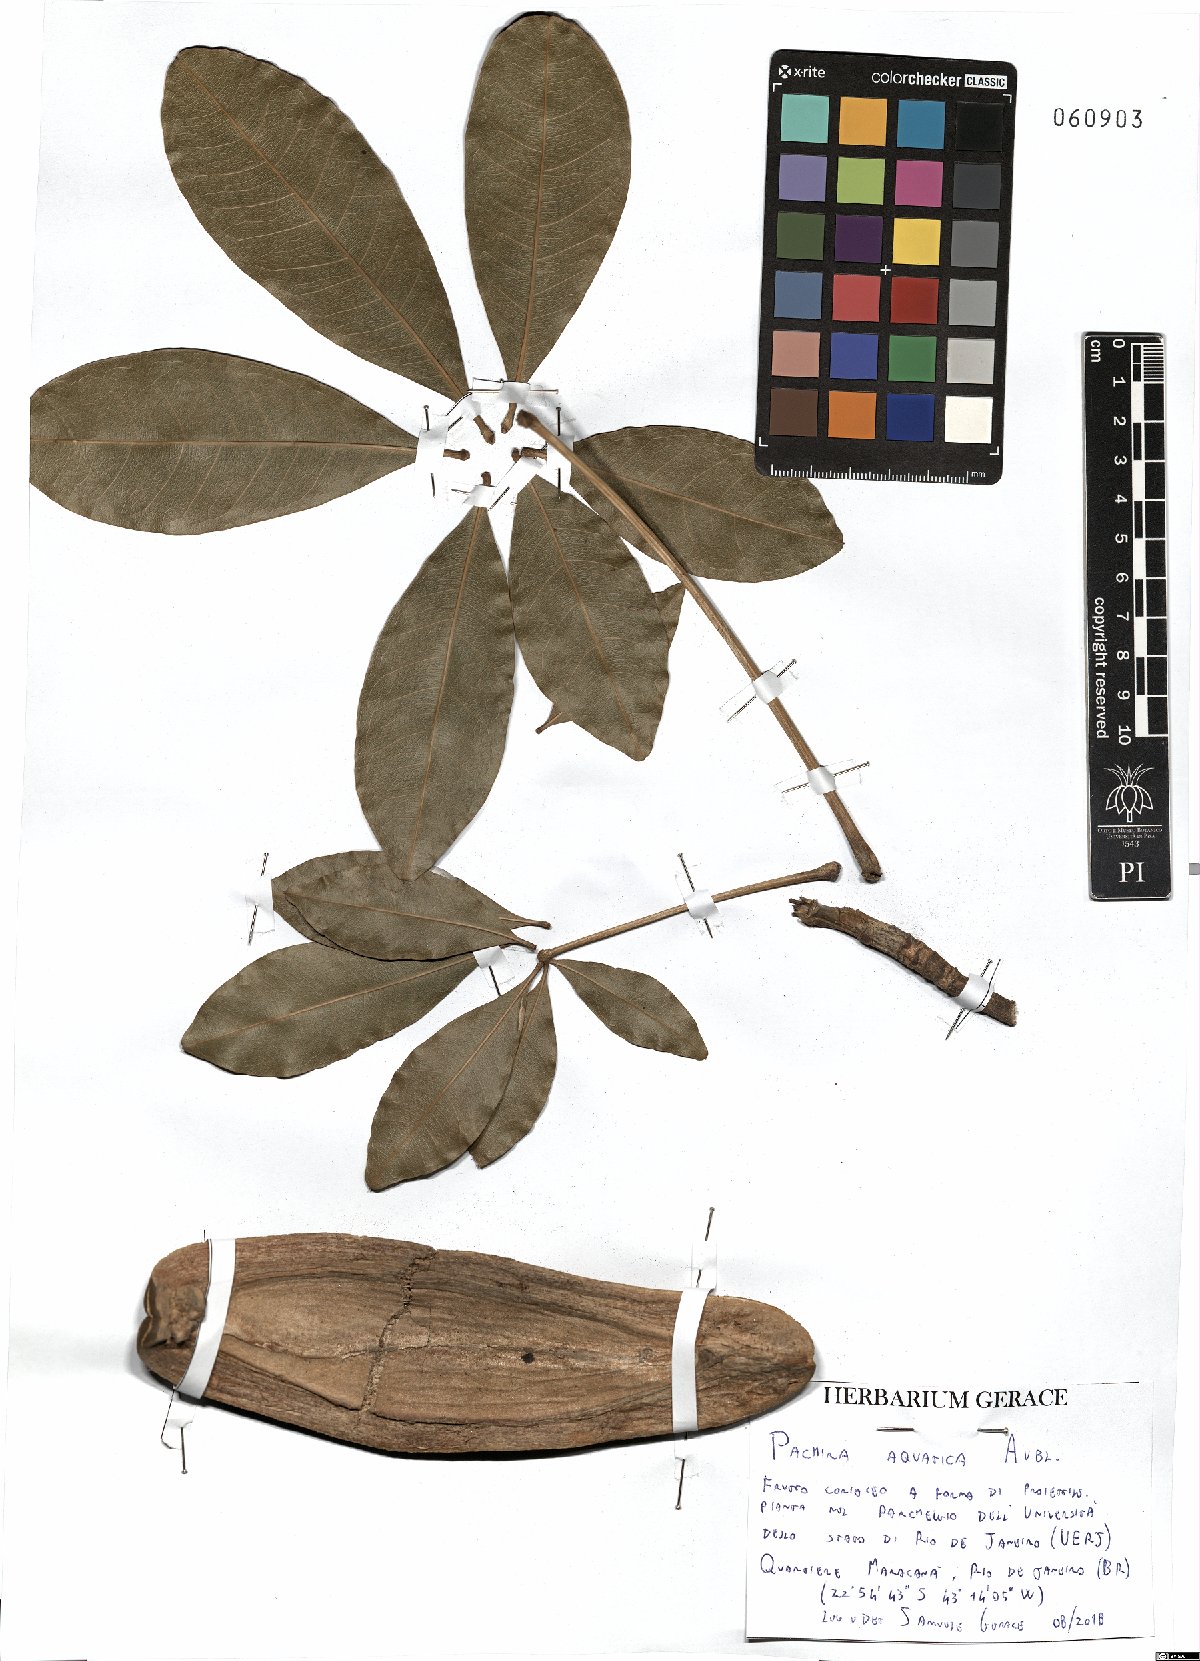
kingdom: Plantae
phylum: Tracheophyta
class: Magnoliopsida
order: Malvales
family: Malvaceae
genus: Pachira
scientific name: Pachira aquatica
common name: Provision-tree
